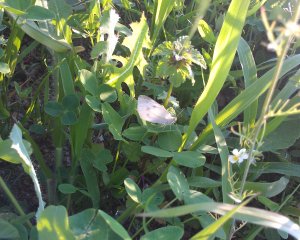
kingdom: Animalia
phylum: Arthropoda
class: Insecta
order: Lepidoptera
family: Pieridae
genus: Pieris
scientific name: Pieris rapae
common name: Cabbage White
